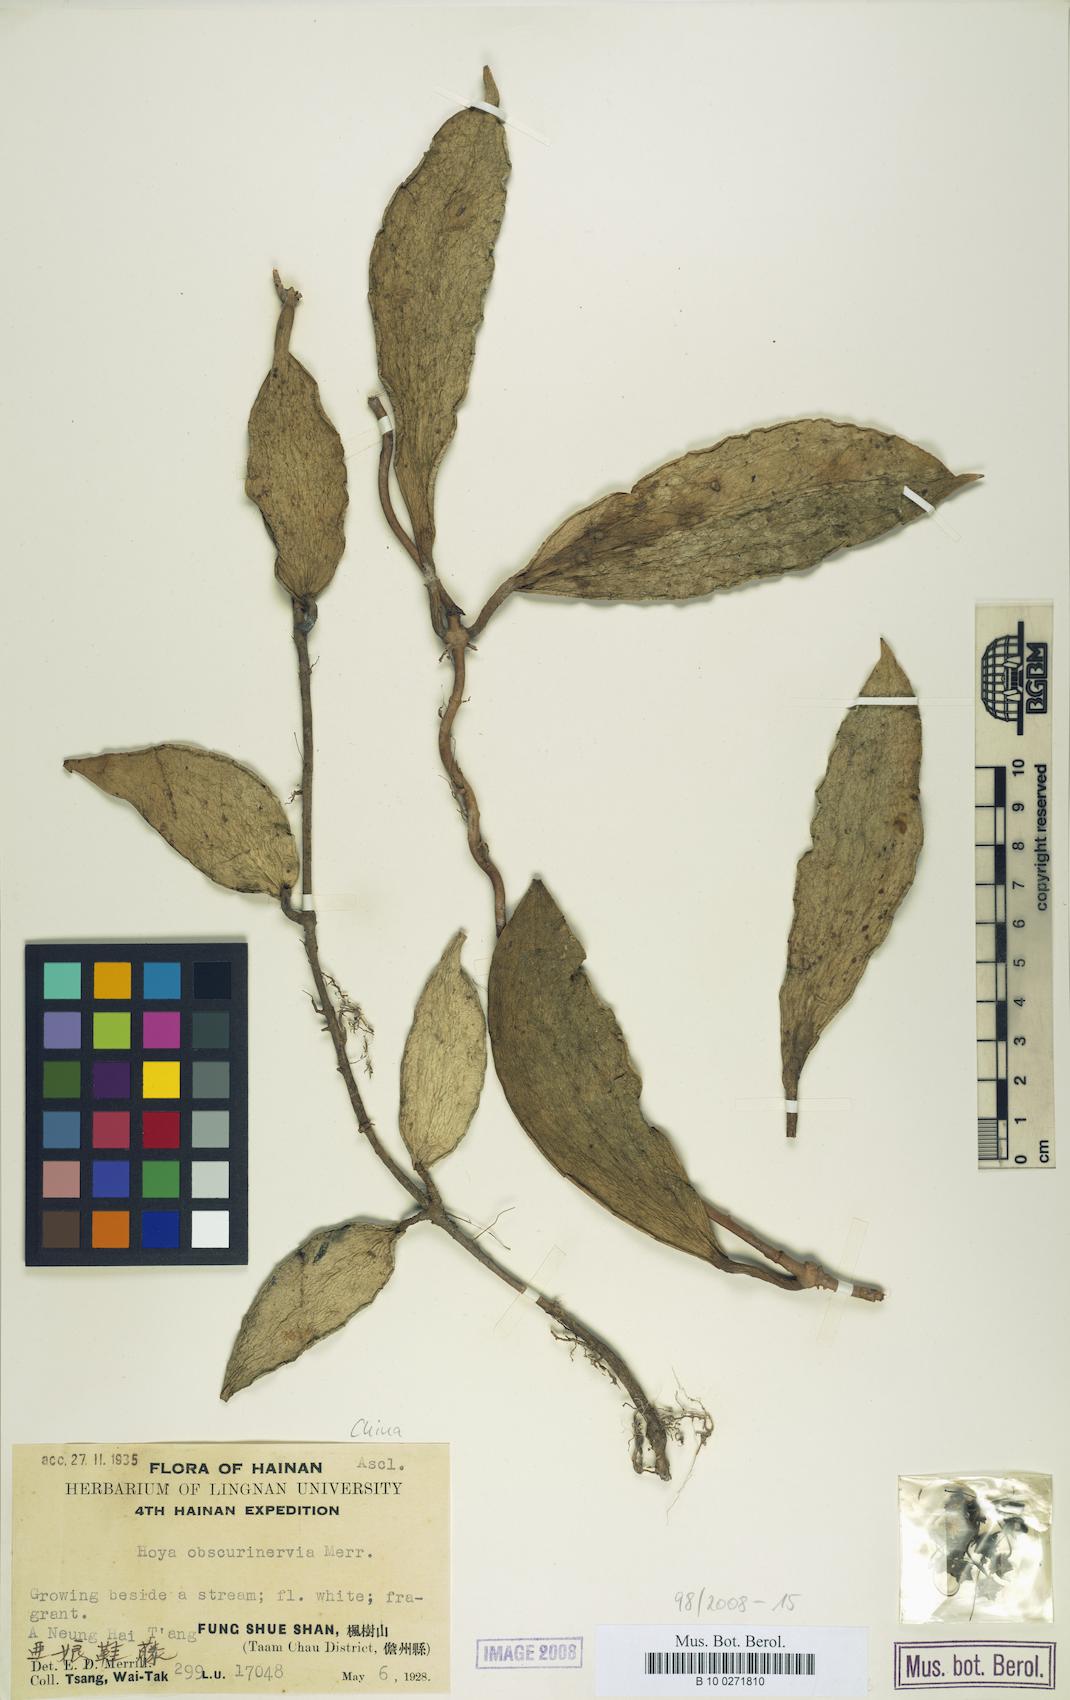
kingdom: Plantae
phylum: Tracheophyta
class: Magnoliopsida
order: Gentianales
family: Apocynaceae
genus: Hoya
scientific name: Hoya verticillata
